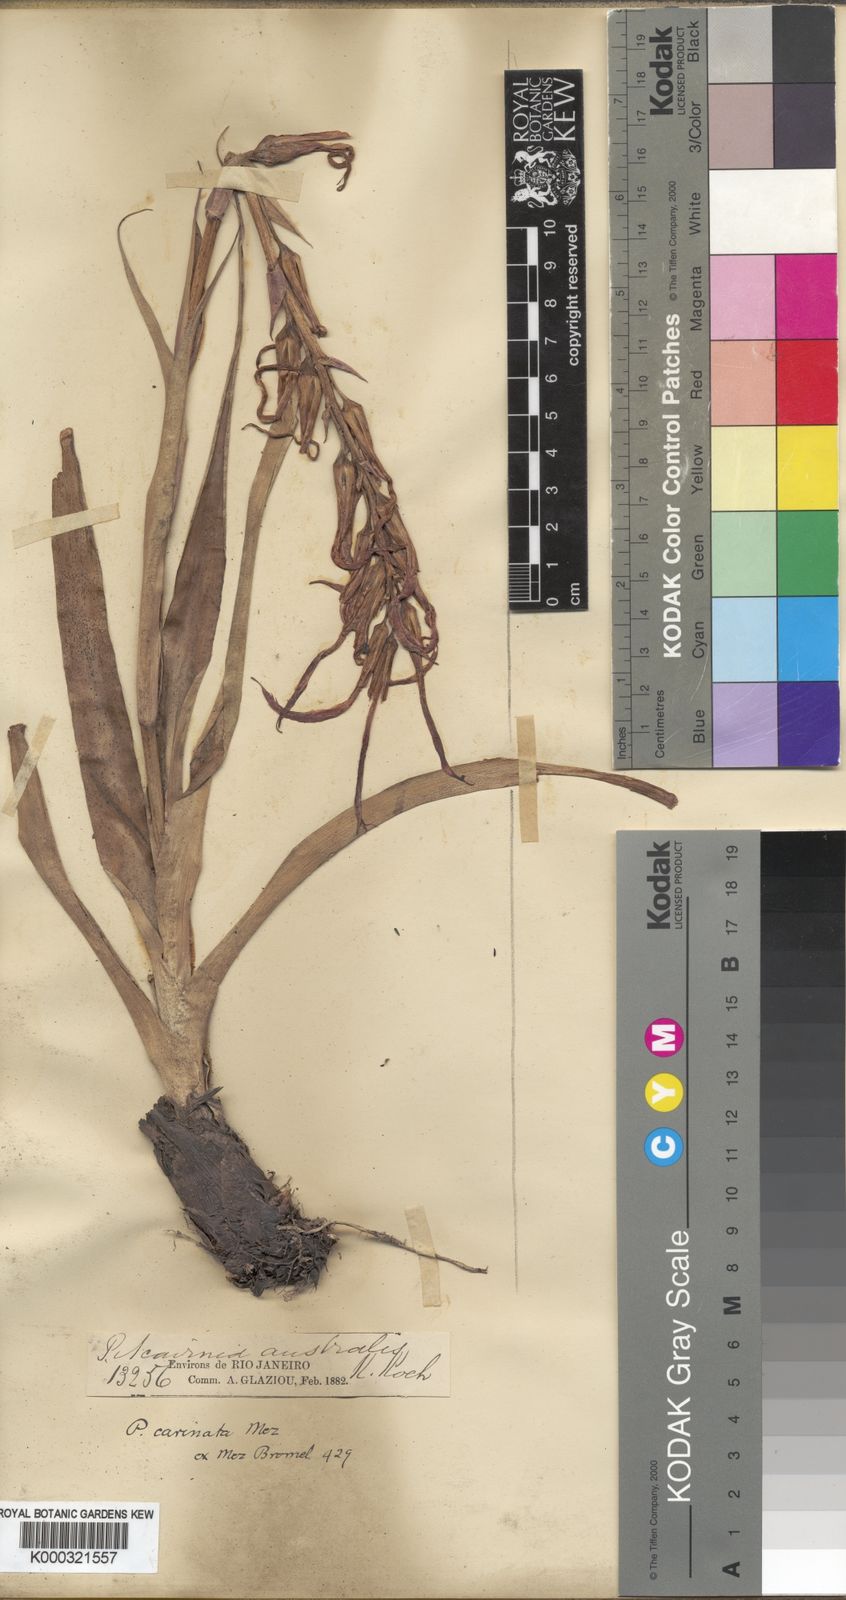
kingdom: Plantae
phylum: Tracheophyta
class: Liliopsida
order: Poales
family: Bromeliaceae
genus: Pitcairnia
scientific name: Pitcairnia
